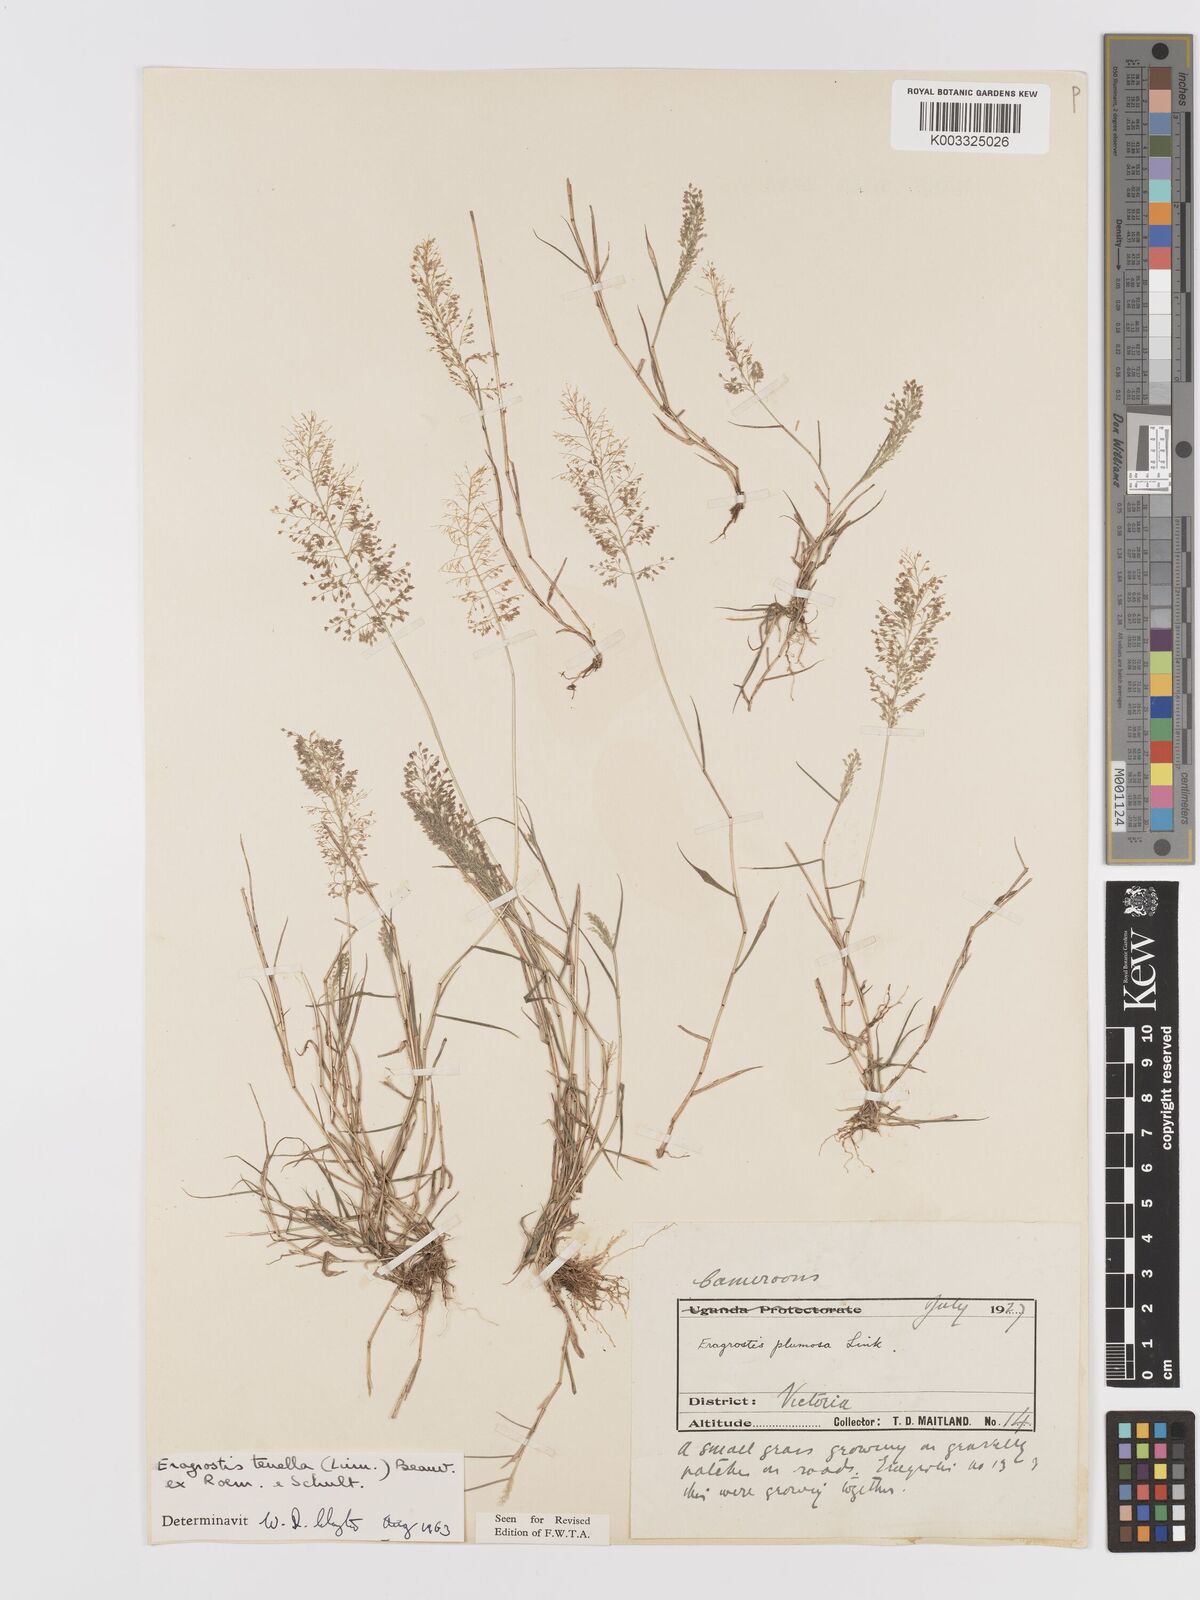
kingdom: Plantae
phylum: Tracheophyta
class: Liliopsida
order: Poales
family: Poaceae
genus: Eragrostis
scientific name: Eragrostis tenella
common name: Japanese lovegrass
